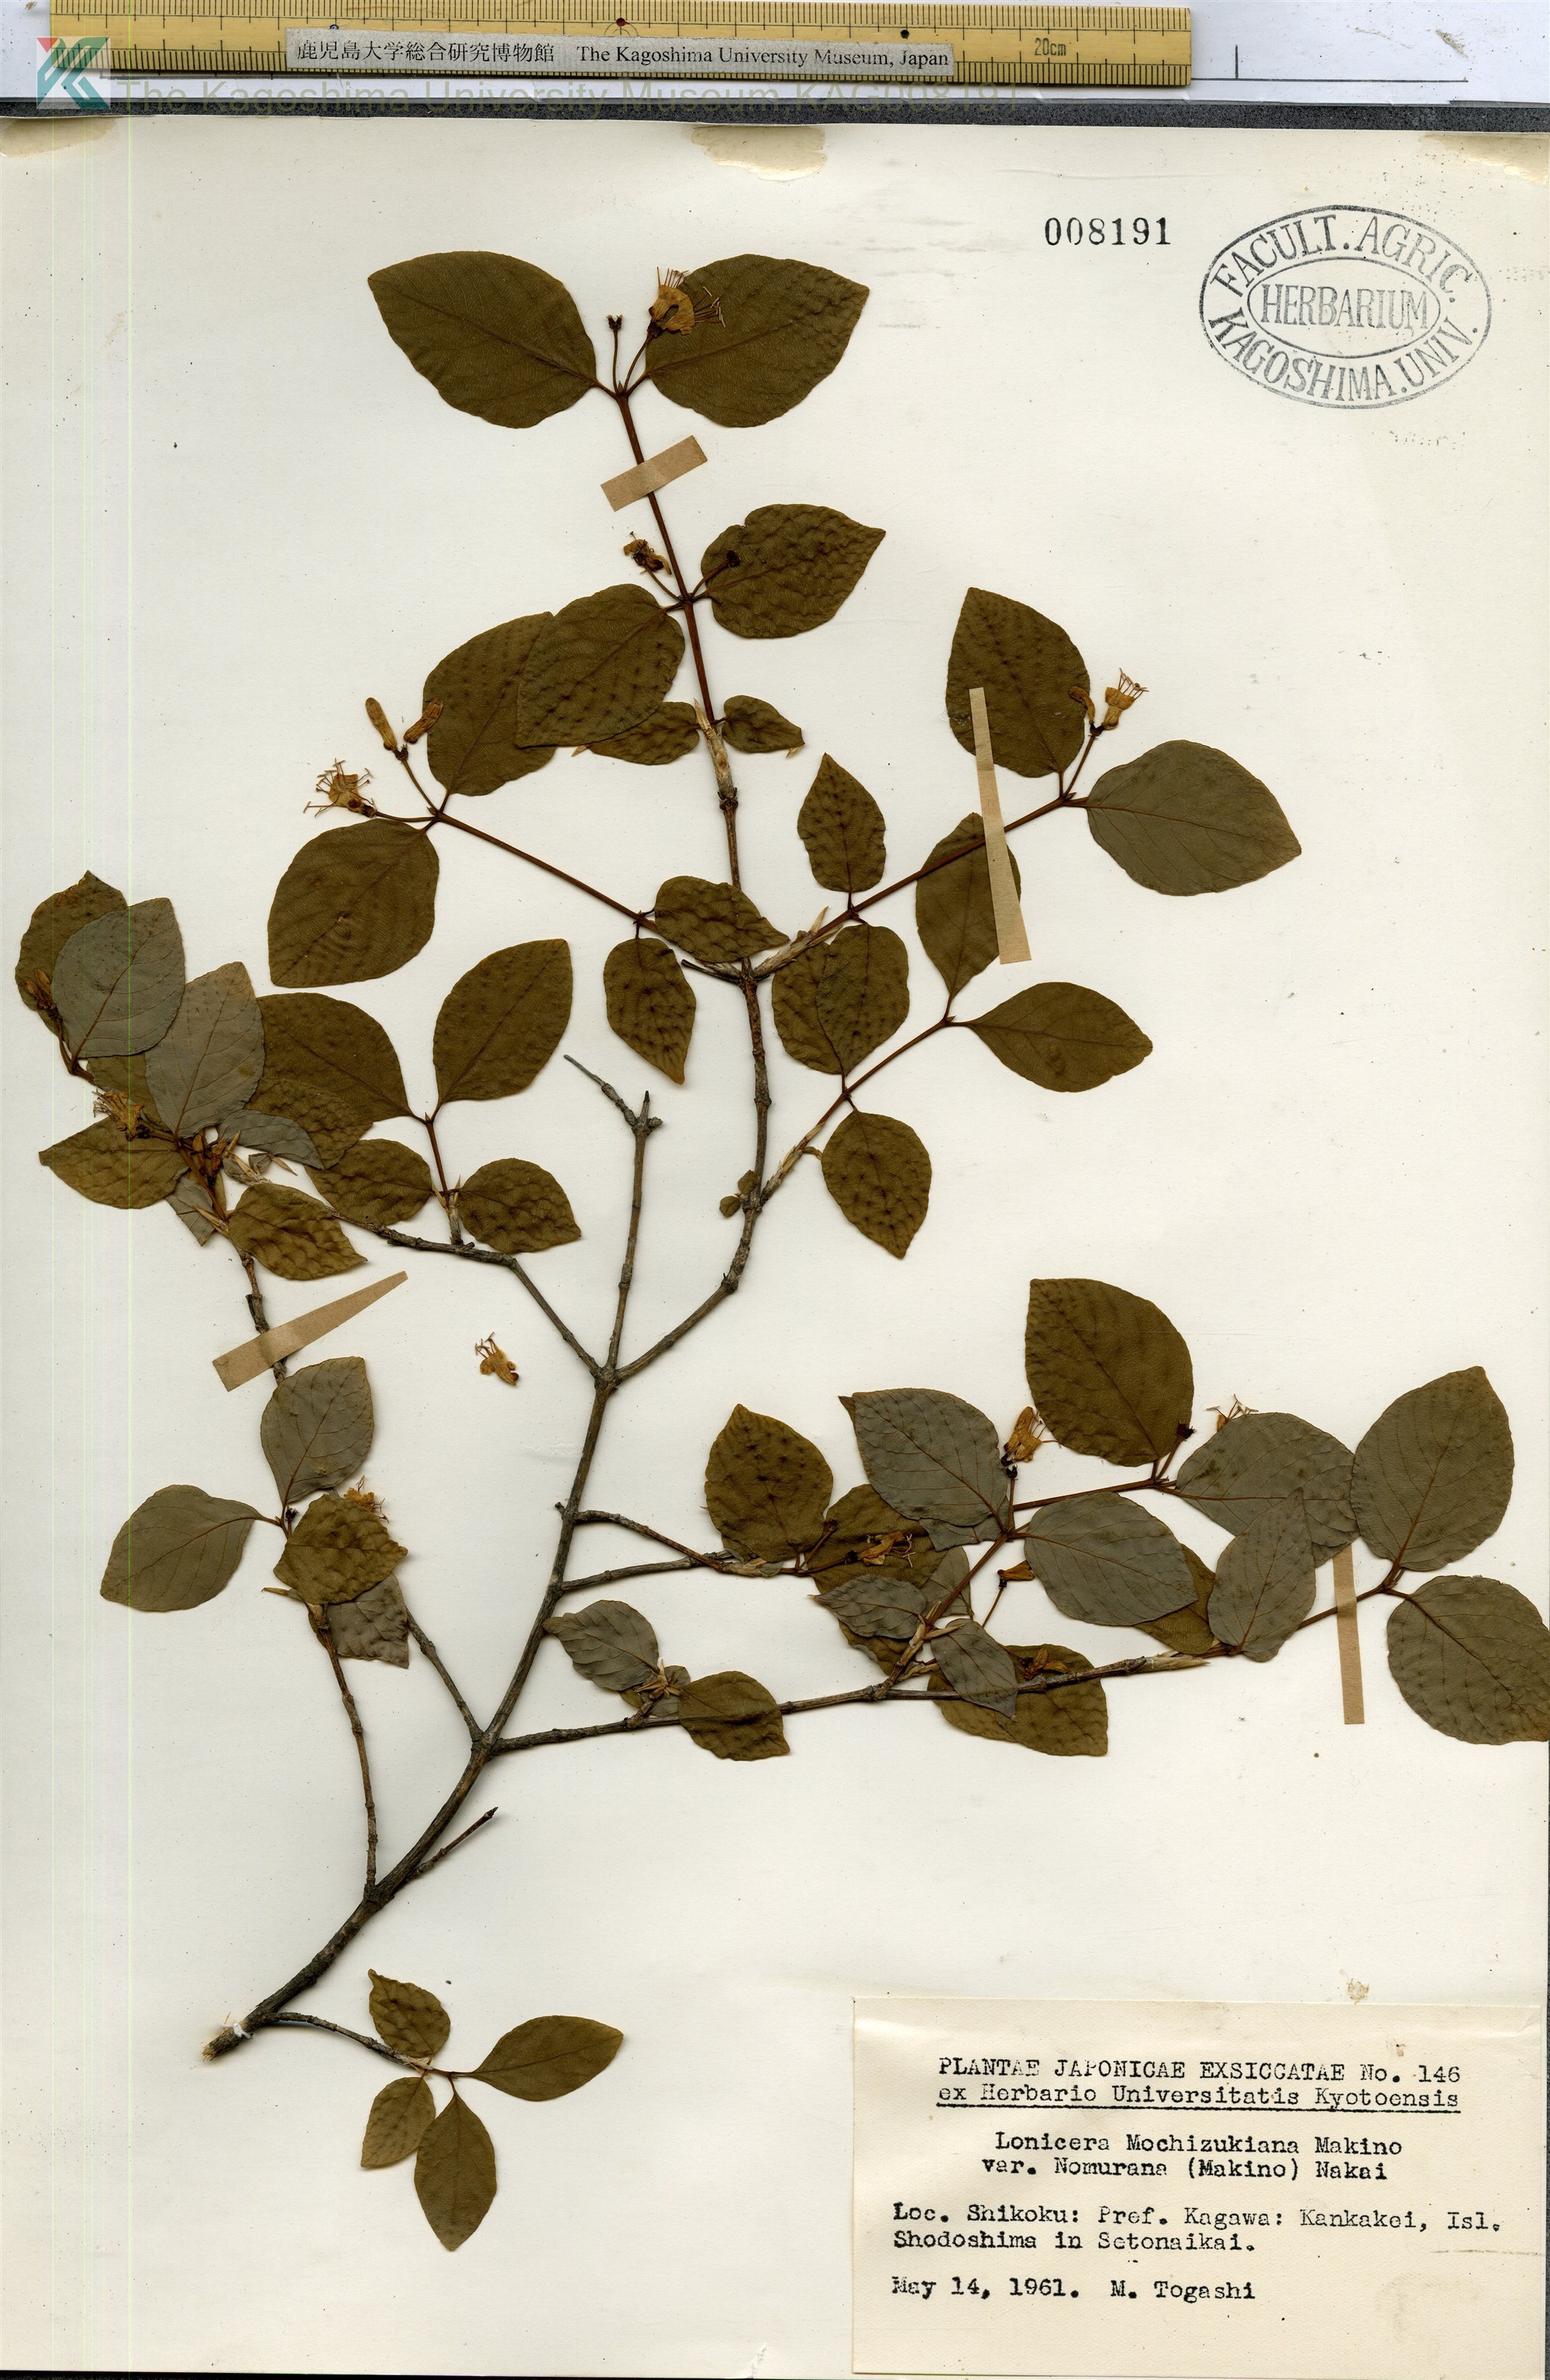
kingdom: Plantae
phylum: Tracheophyta
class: Magnoliopsida
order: Dipsacales
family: Caprifoliaceae
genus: Lonicera
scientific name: Lonicera subhispida
